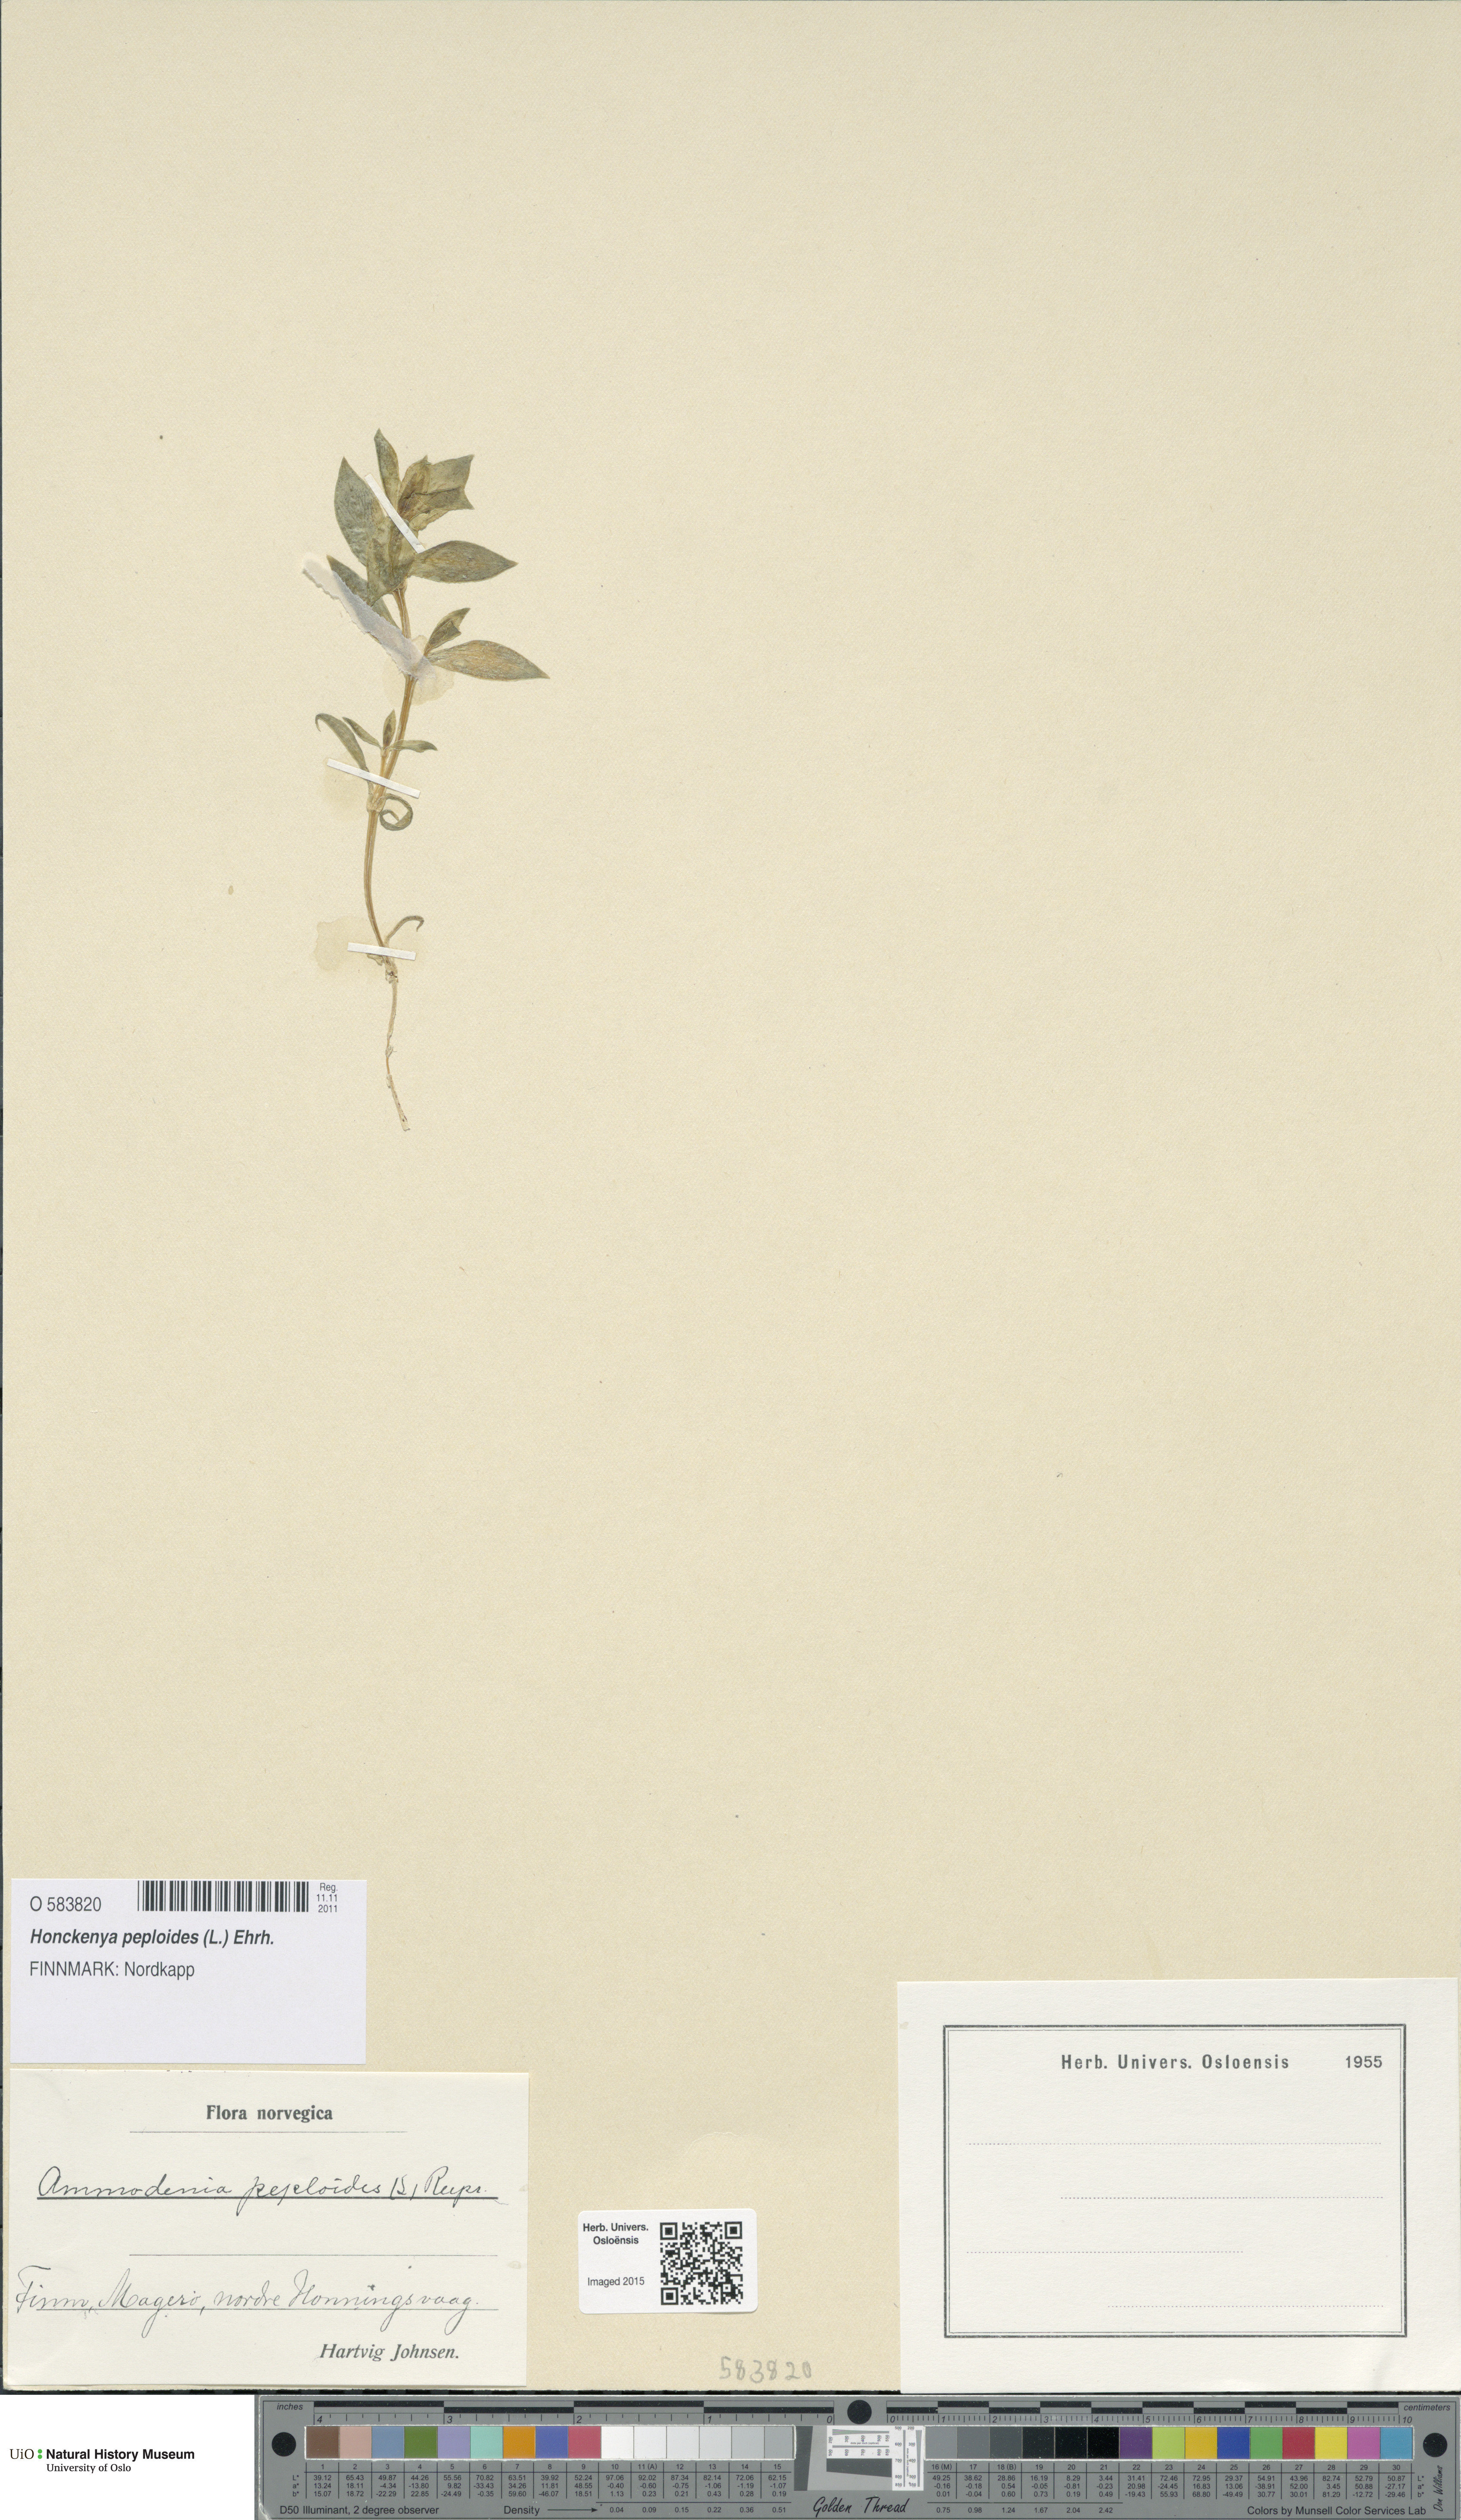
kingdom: Plantae
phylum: Tracheophyta
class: Magnoliopsida
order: Caryophyllales
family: Caryophyllaceae
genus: Honckenya
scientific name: Honckenya peploides
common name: Sea sandwort
